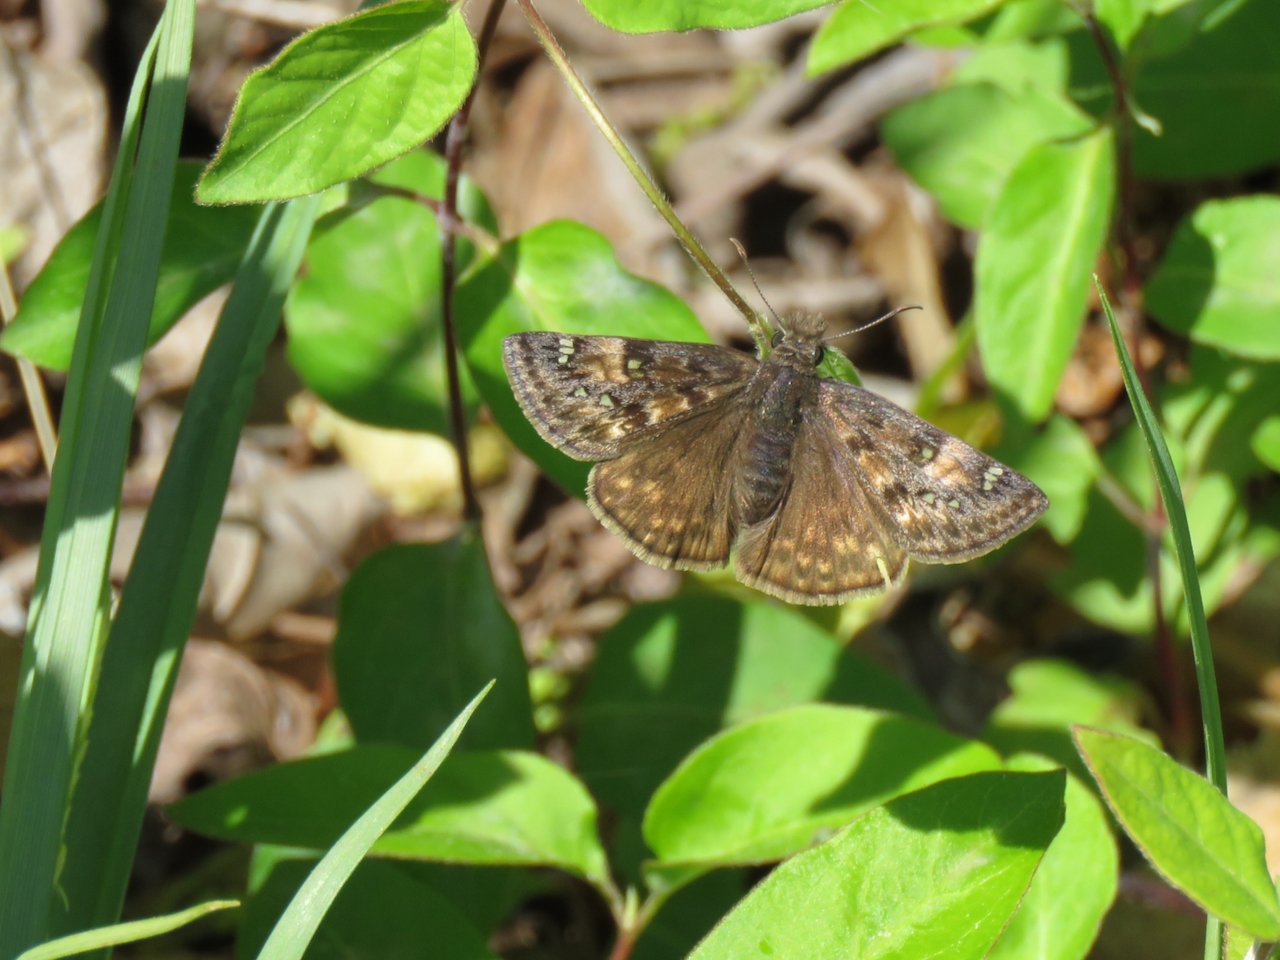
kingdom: Animalia
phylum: Arthropoda
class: Insecta
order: Lepidoptera
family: Hesperiidae
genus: Gesta
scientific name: Gesta
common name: Juvenal's Duskywing
